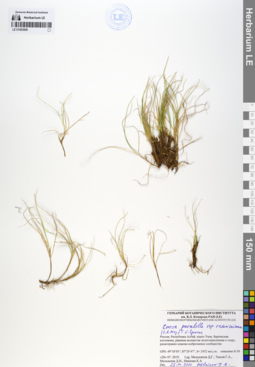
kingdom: Plantae
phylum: Tracheophyta
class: Liliopsida
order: Poales
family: Cyperaceae
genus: Carex
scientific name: Carex parallela
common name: Parallel sedge
